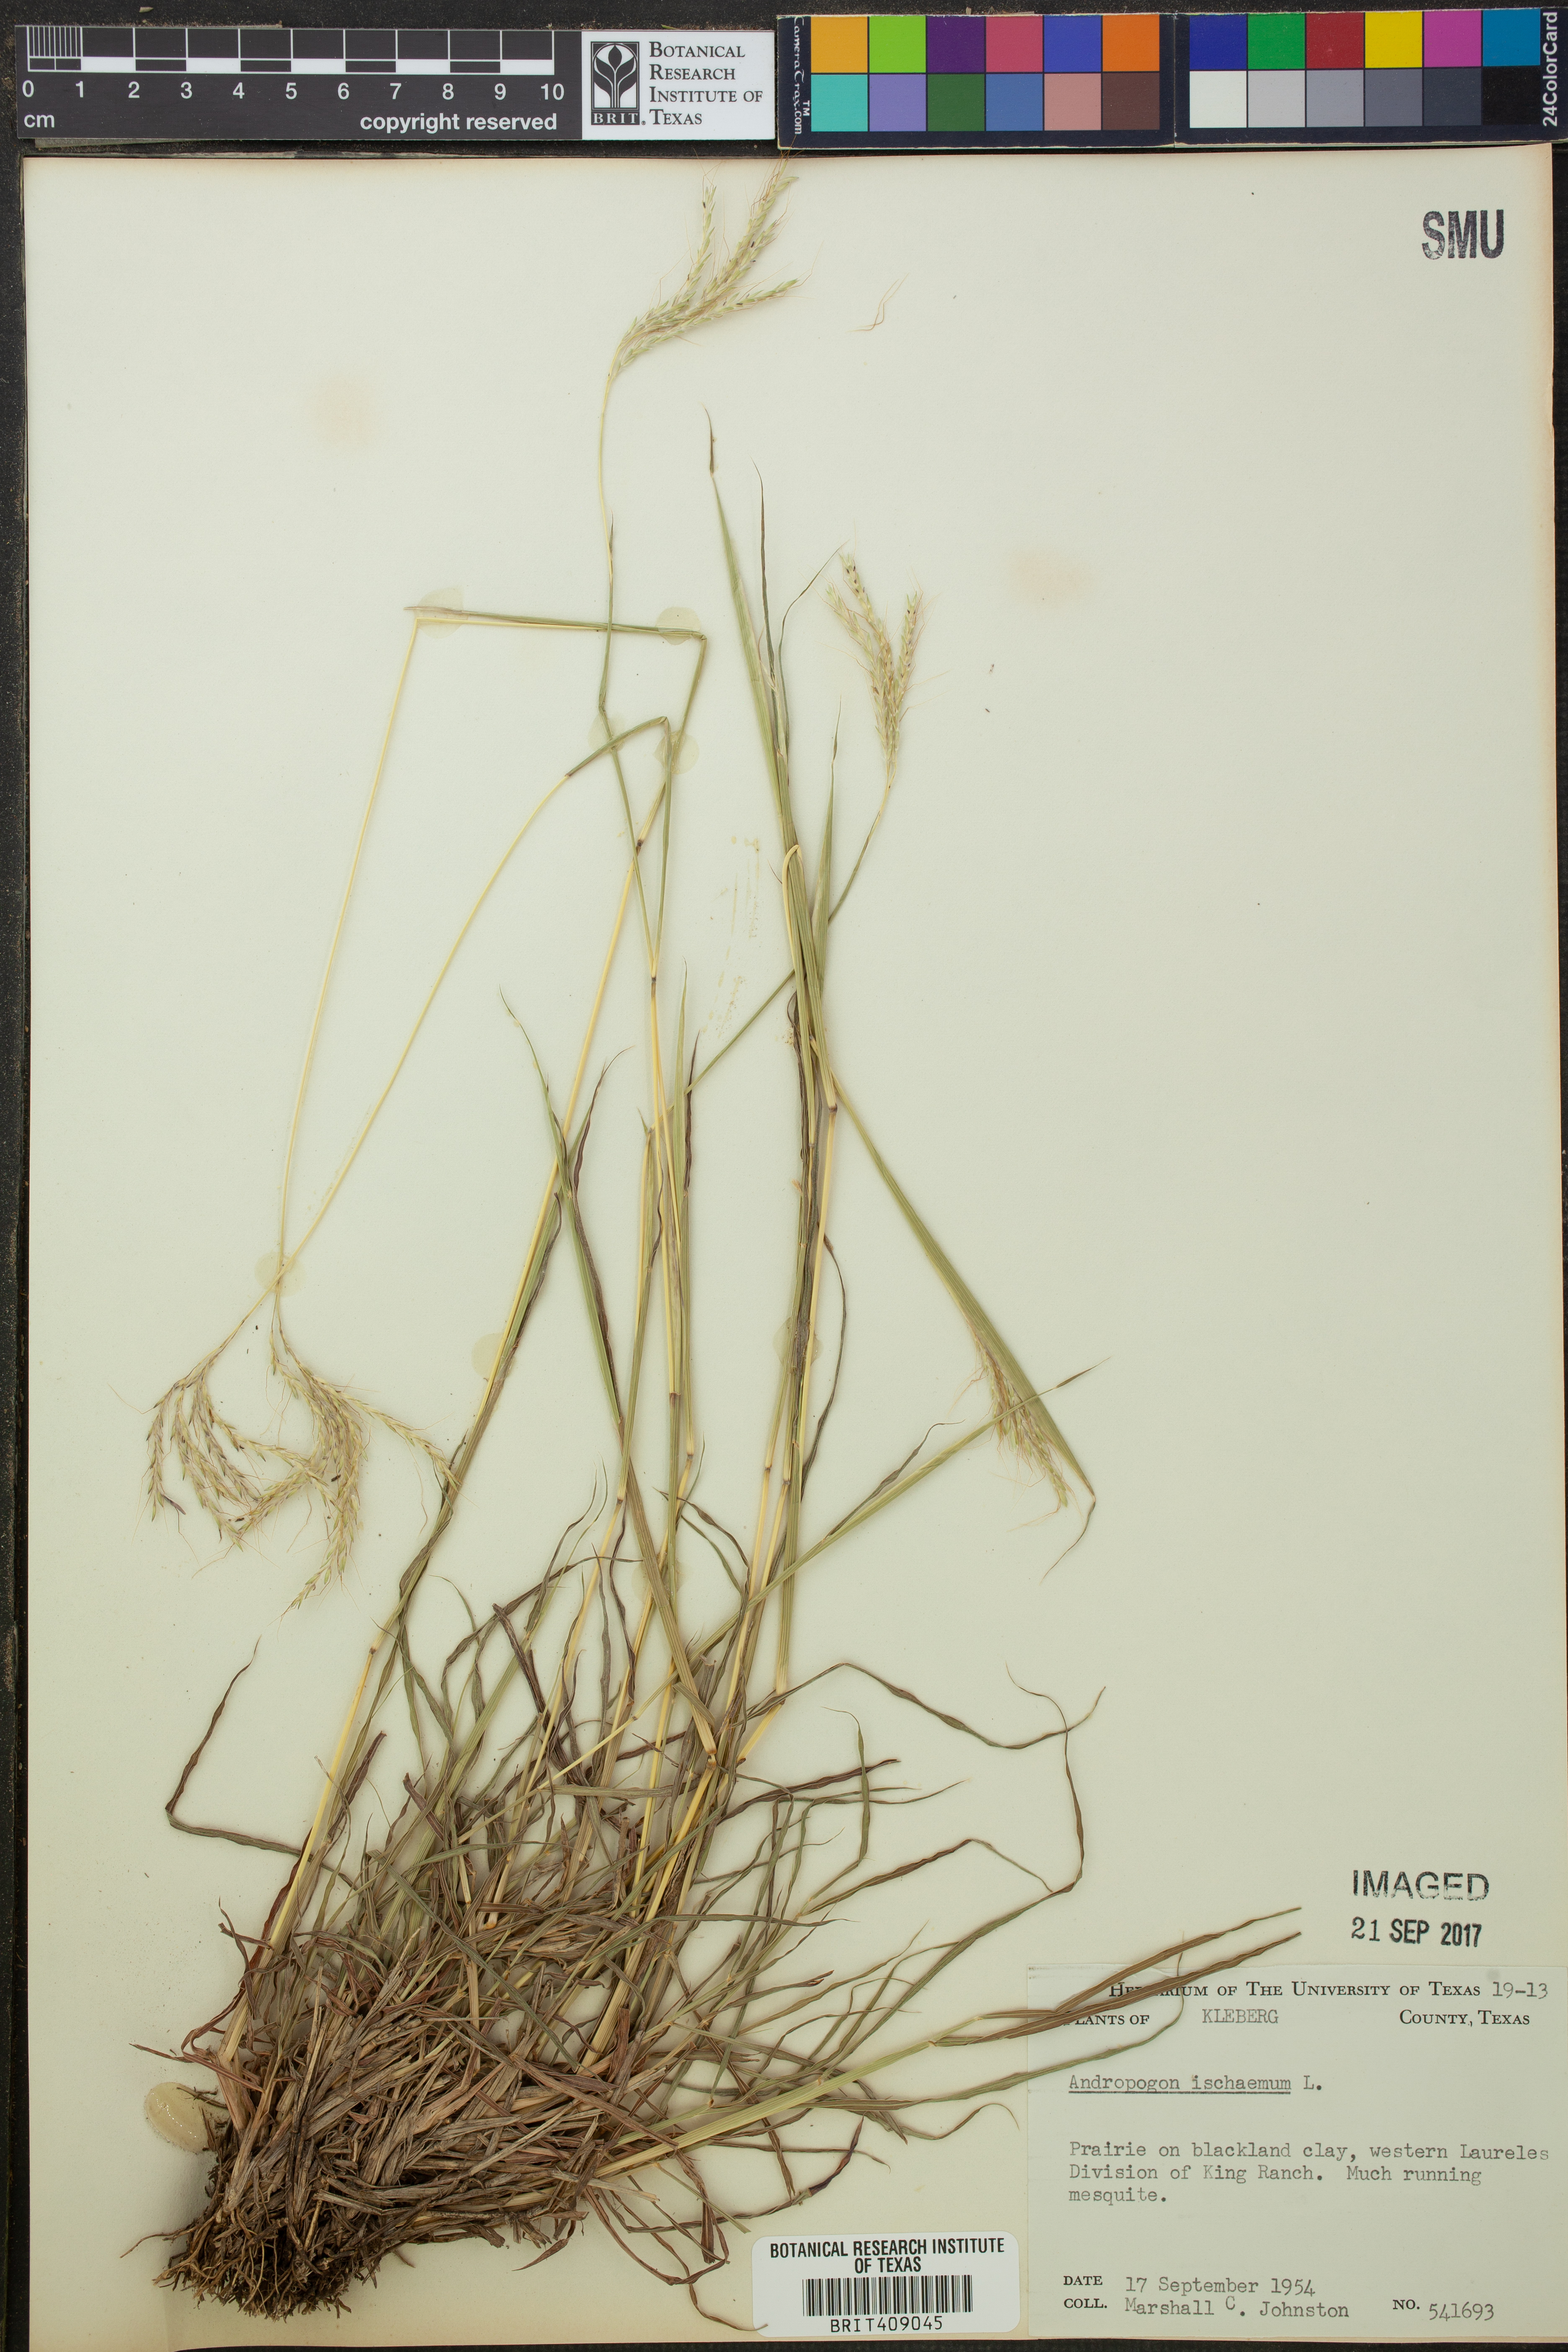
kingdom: Plantae
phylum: Tracheophyta
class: Liliopsida
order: Poales
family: Poaceae
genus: Andropogon
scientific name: Andropogon ischaemum
